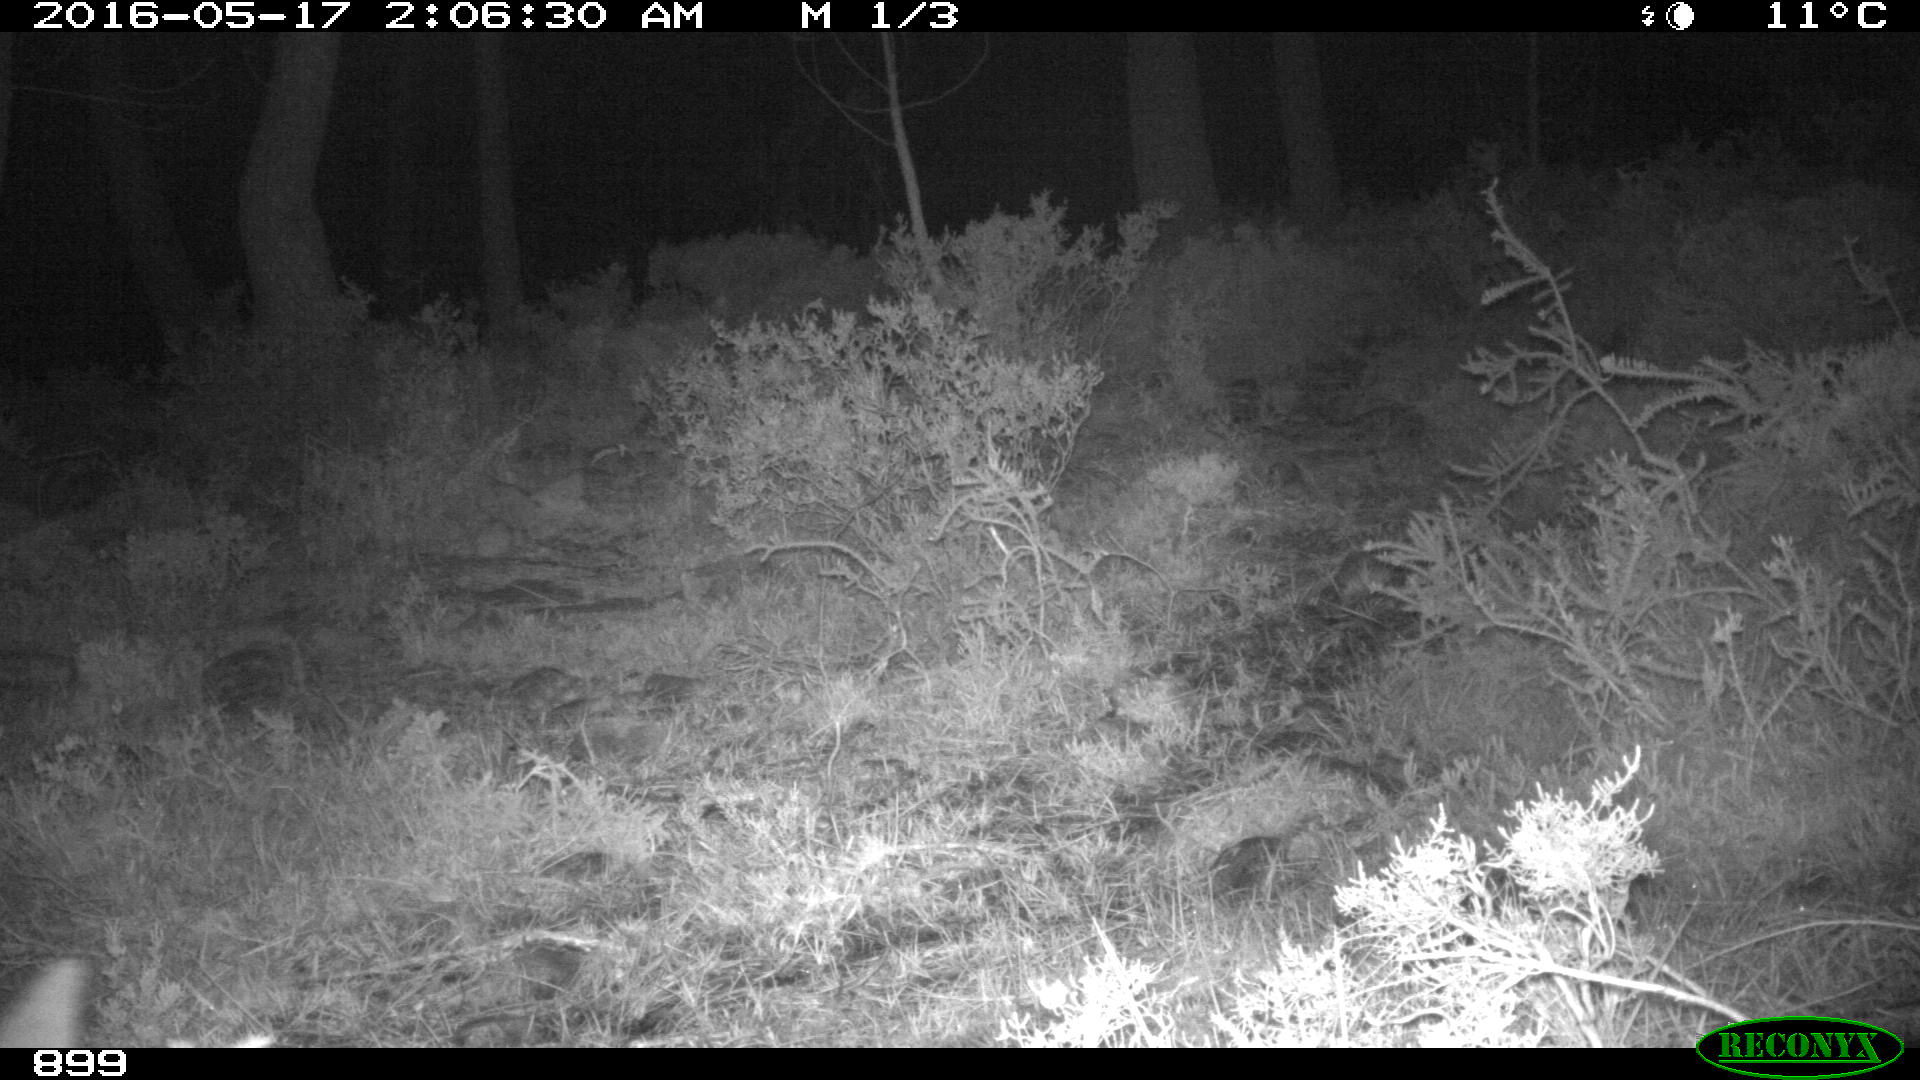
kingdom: Animalia
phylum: Chordata
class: Mammalia
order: Artiodactyla
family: Cervidae
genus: Capreolus
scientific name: Capreolus capreolus
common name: Western roe deer
